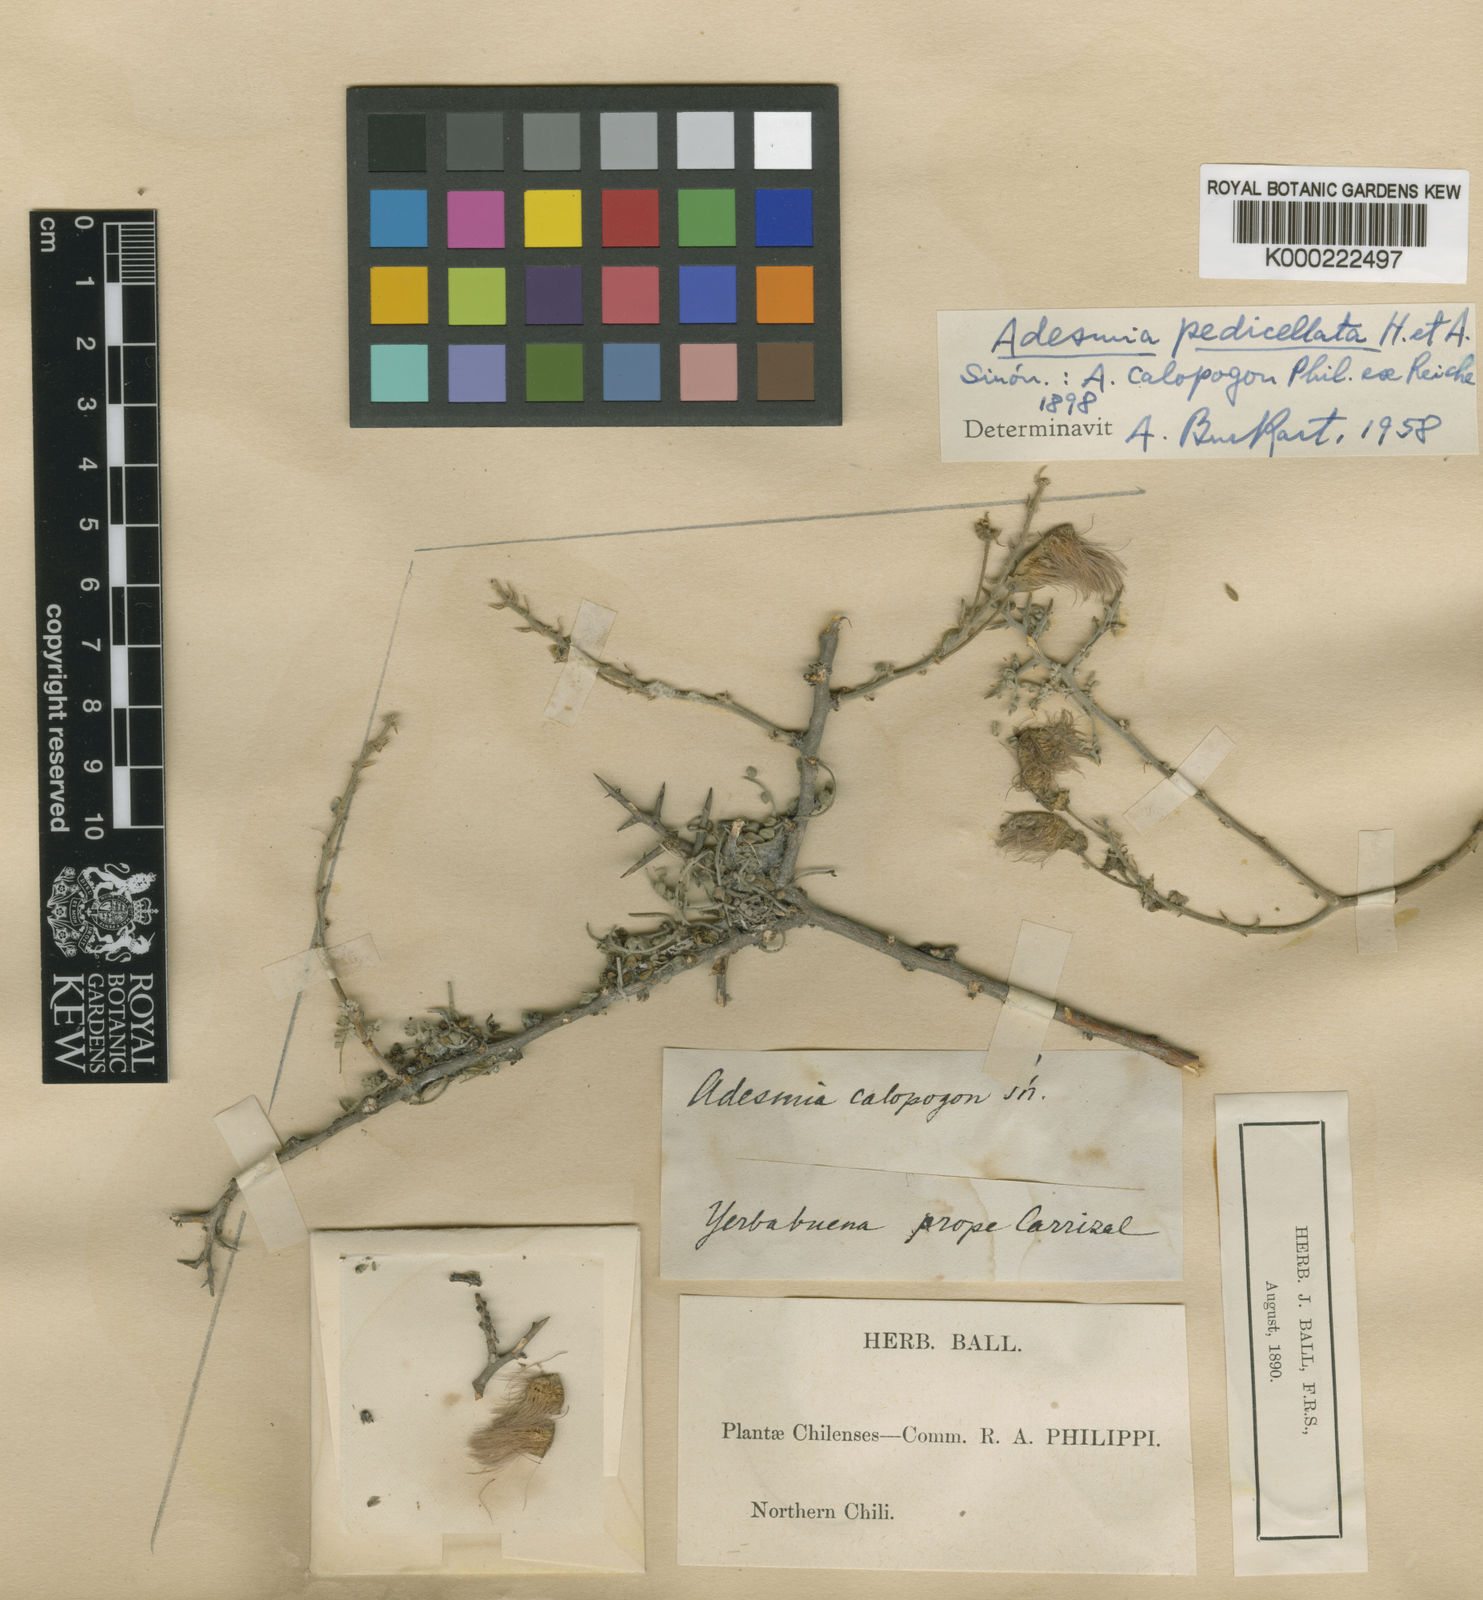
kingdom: Plantae
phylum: Tracheophyta
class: Magnoliopsida
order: Fabales
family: Fabaceae
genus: Adesmia
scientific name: Adesmia
